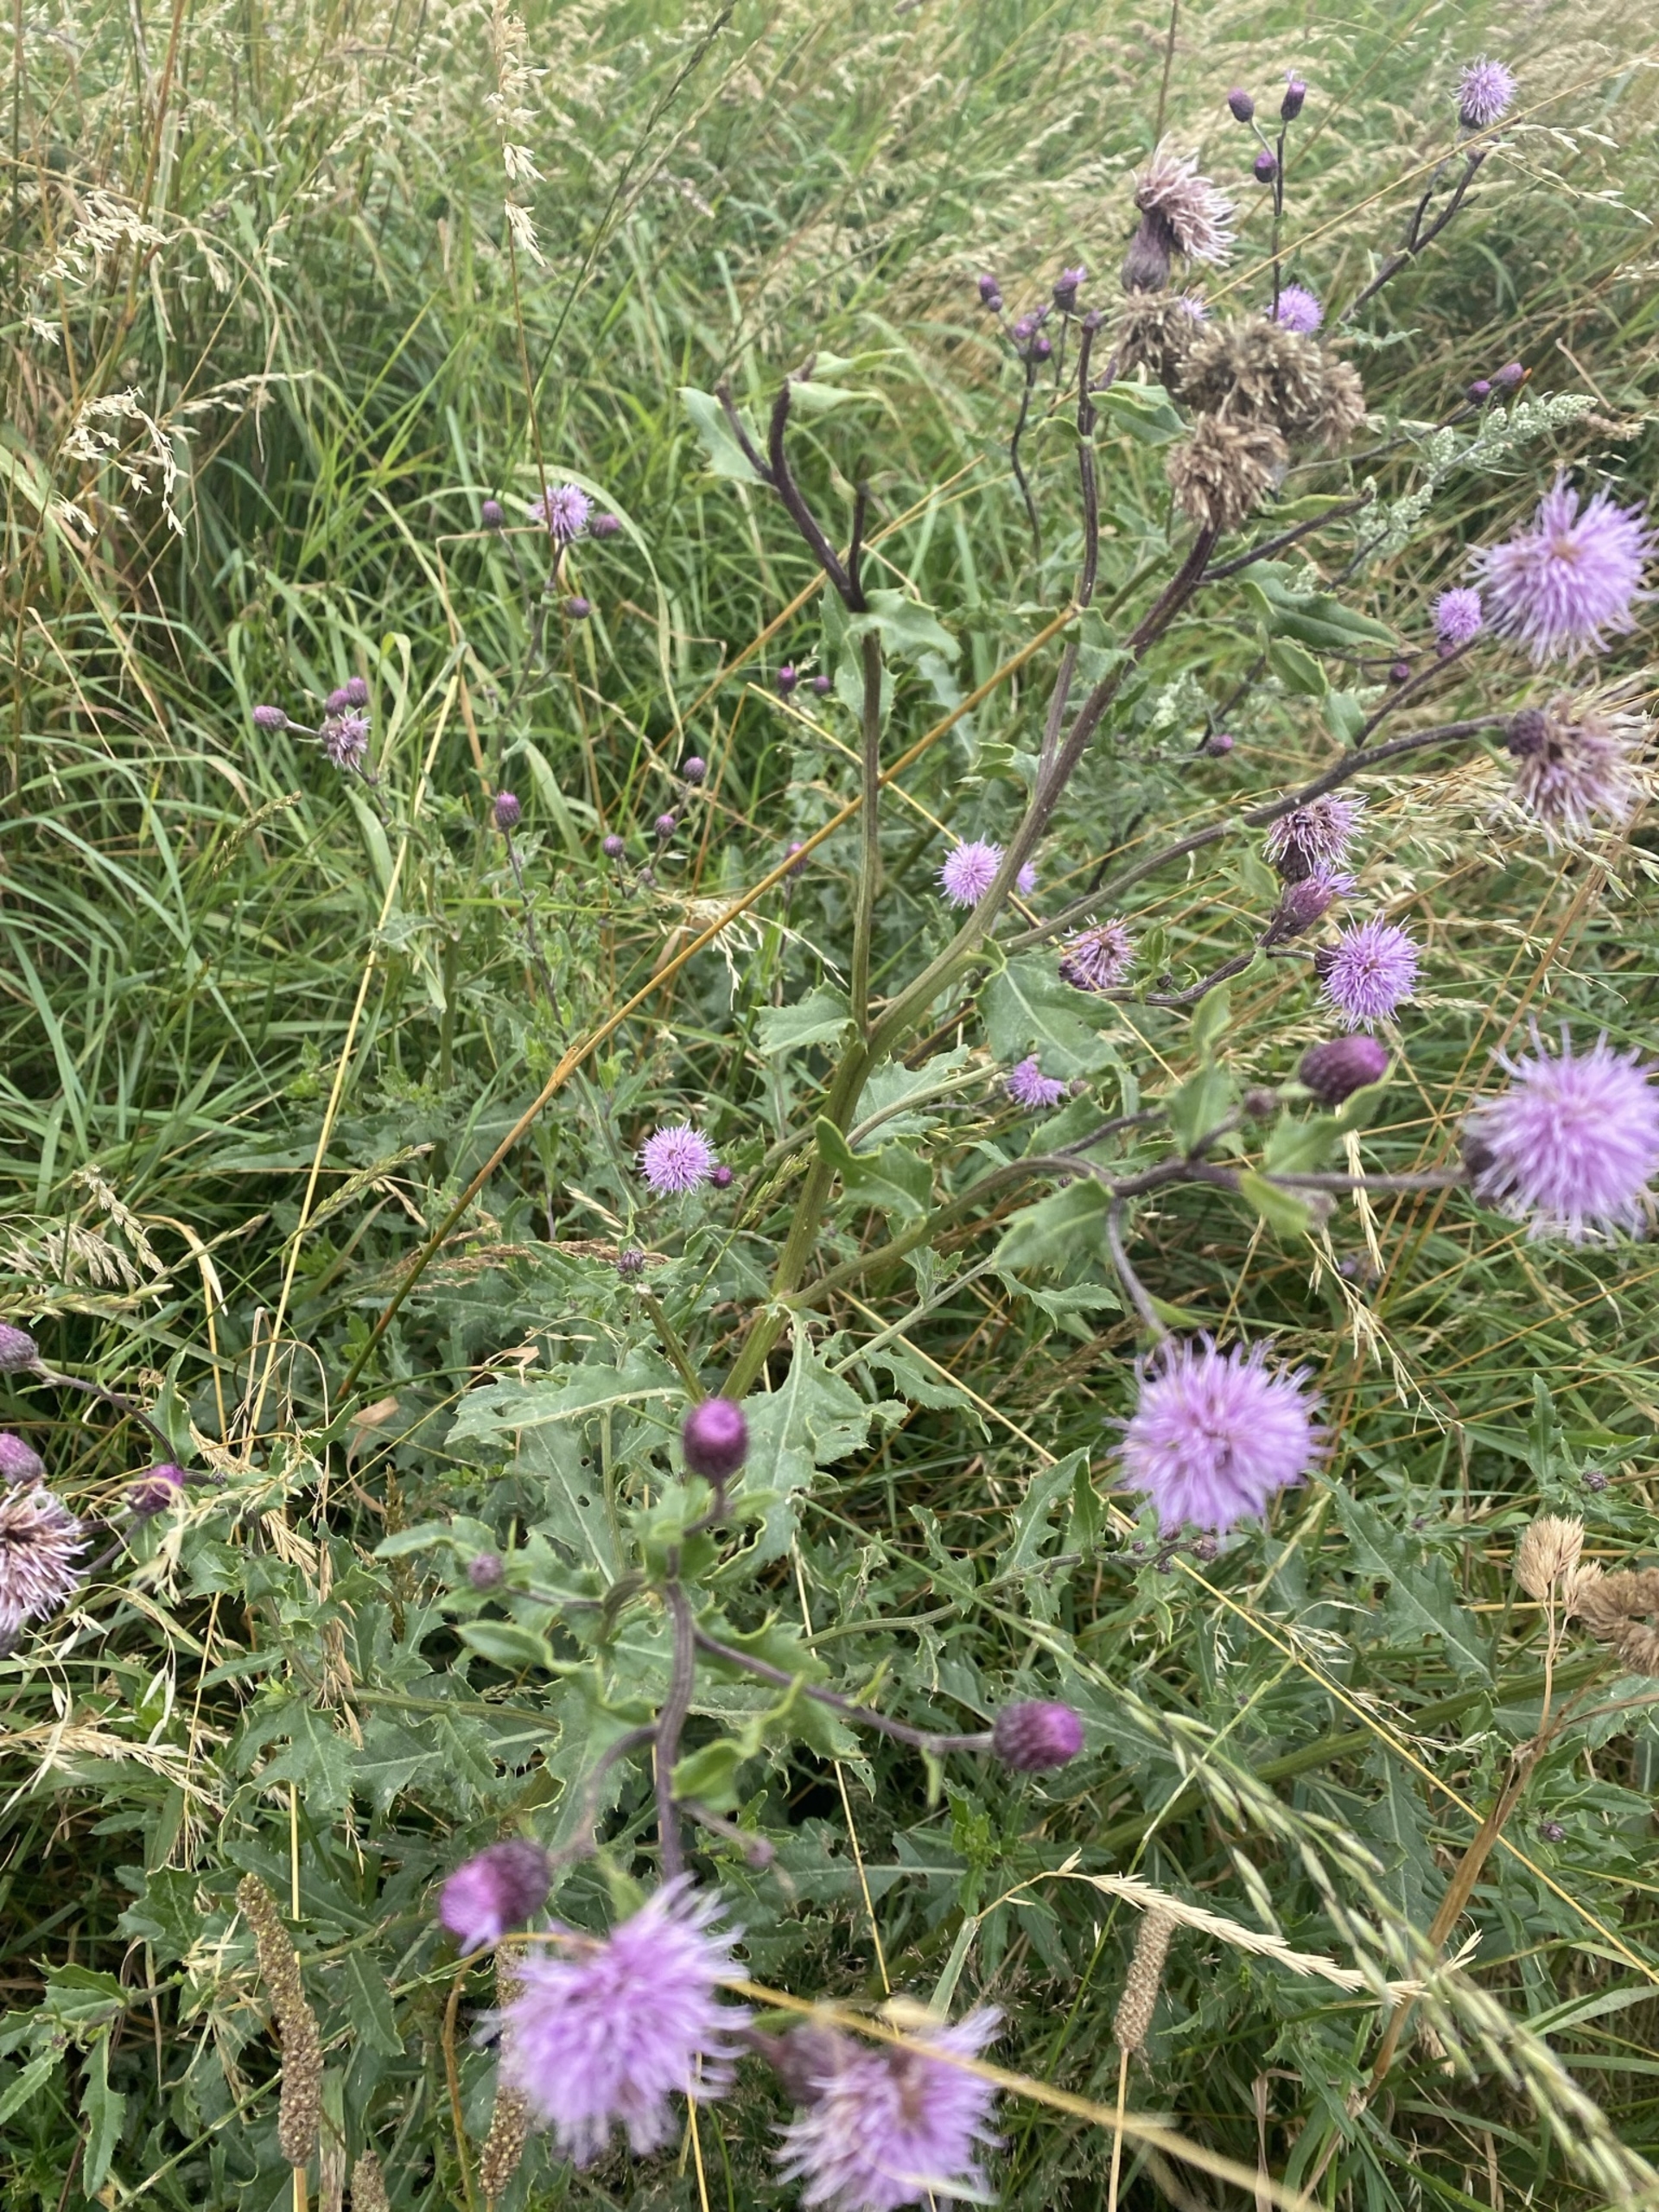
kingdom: Plantae
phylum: Tracheophyta
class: Magnoliopsida
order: Asterales
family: Asteraceae
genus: Cirsium
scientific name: Cirsium arvense
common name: Ager-tidsel
